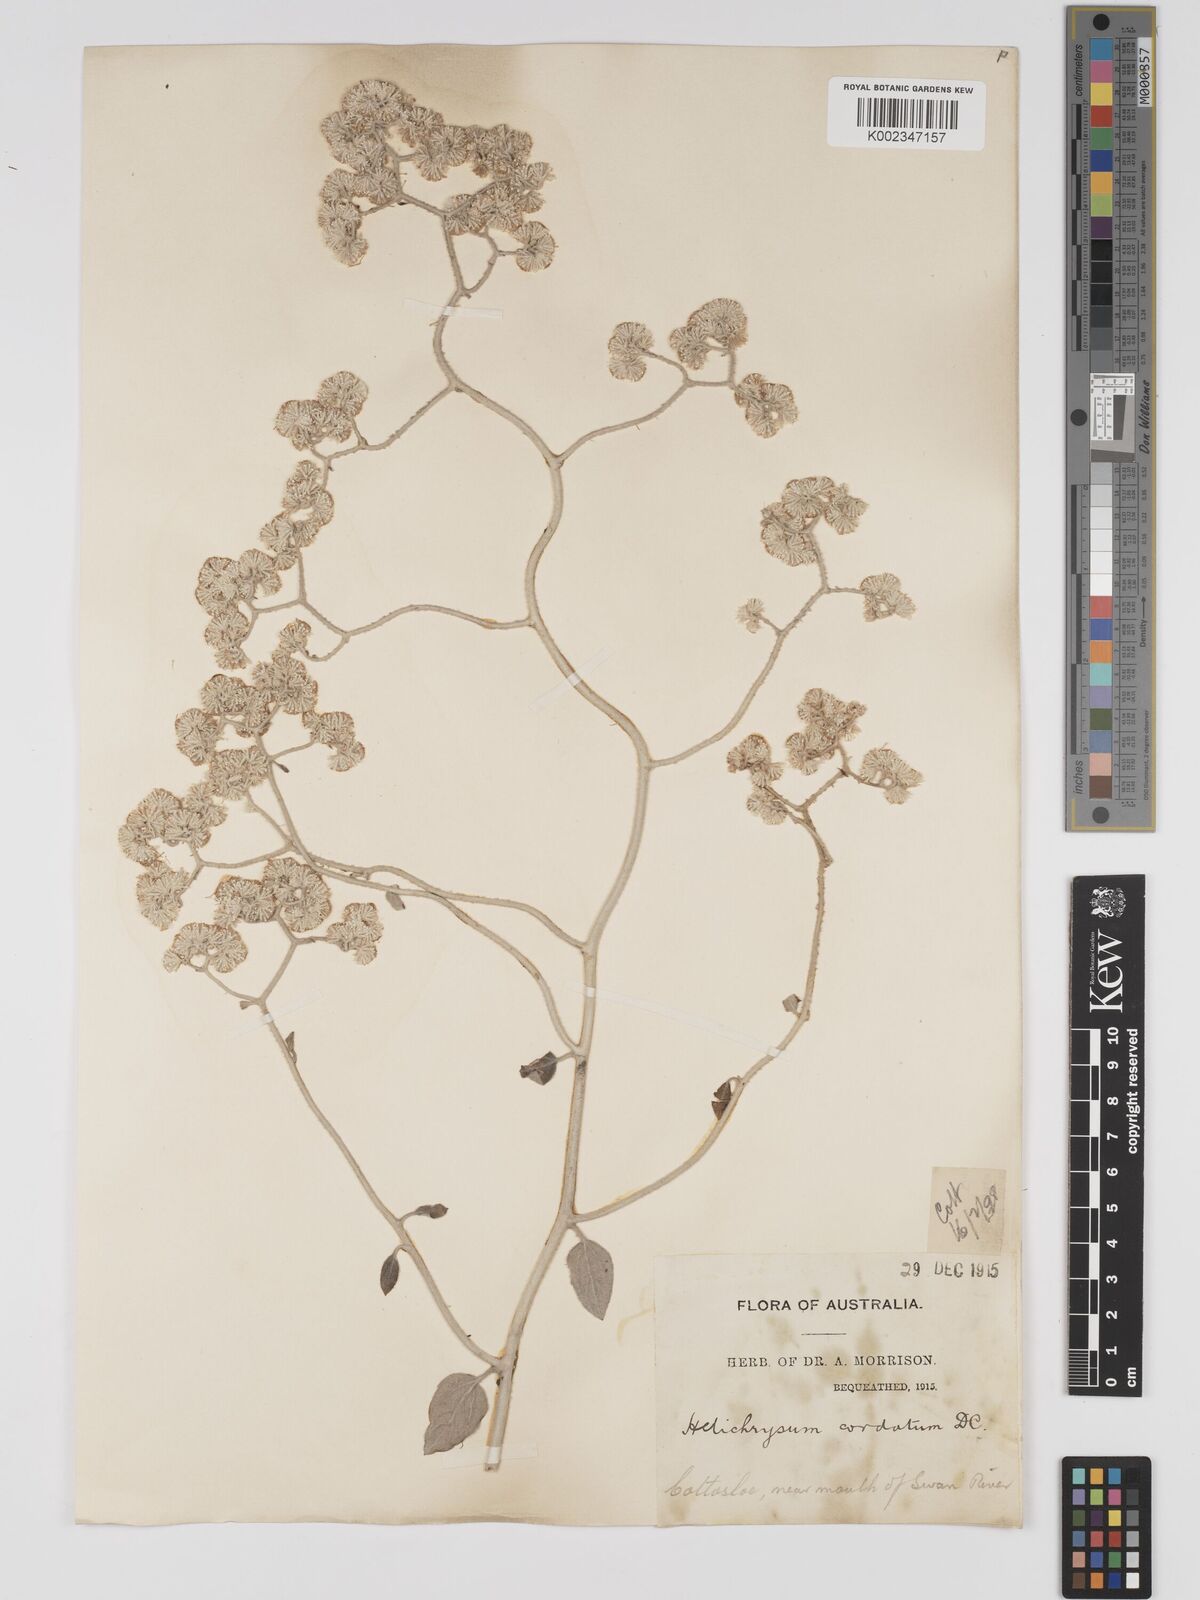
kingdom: Plantae
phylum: Tracheophyta
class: Magnoliopsida
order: Asterales
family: Asteraceae
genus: Ozothamnus
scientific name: Ozothamnus
